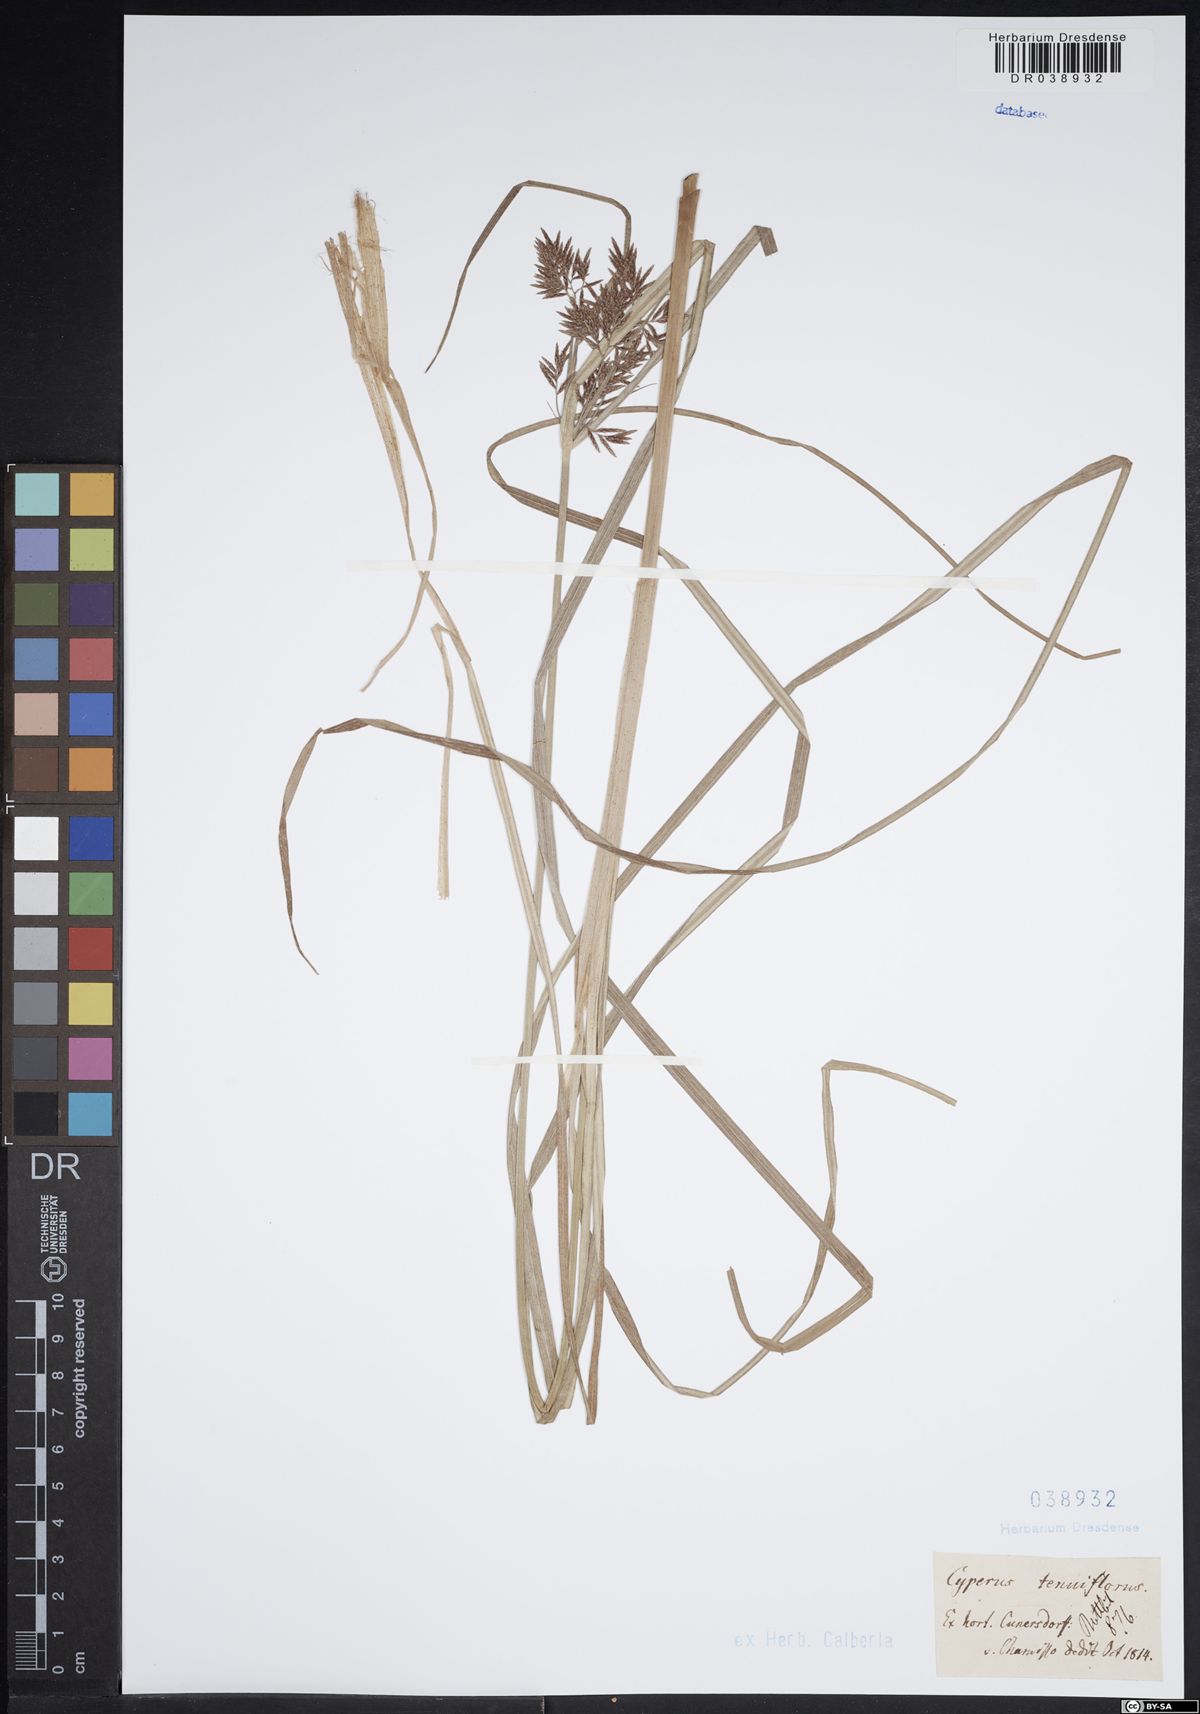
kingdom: Plantae
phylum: Tracheophyta
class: Liliopsida
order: Poales
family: Cyperaceae
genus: Cyperus
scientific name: Cyperus longus
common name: Galingale
